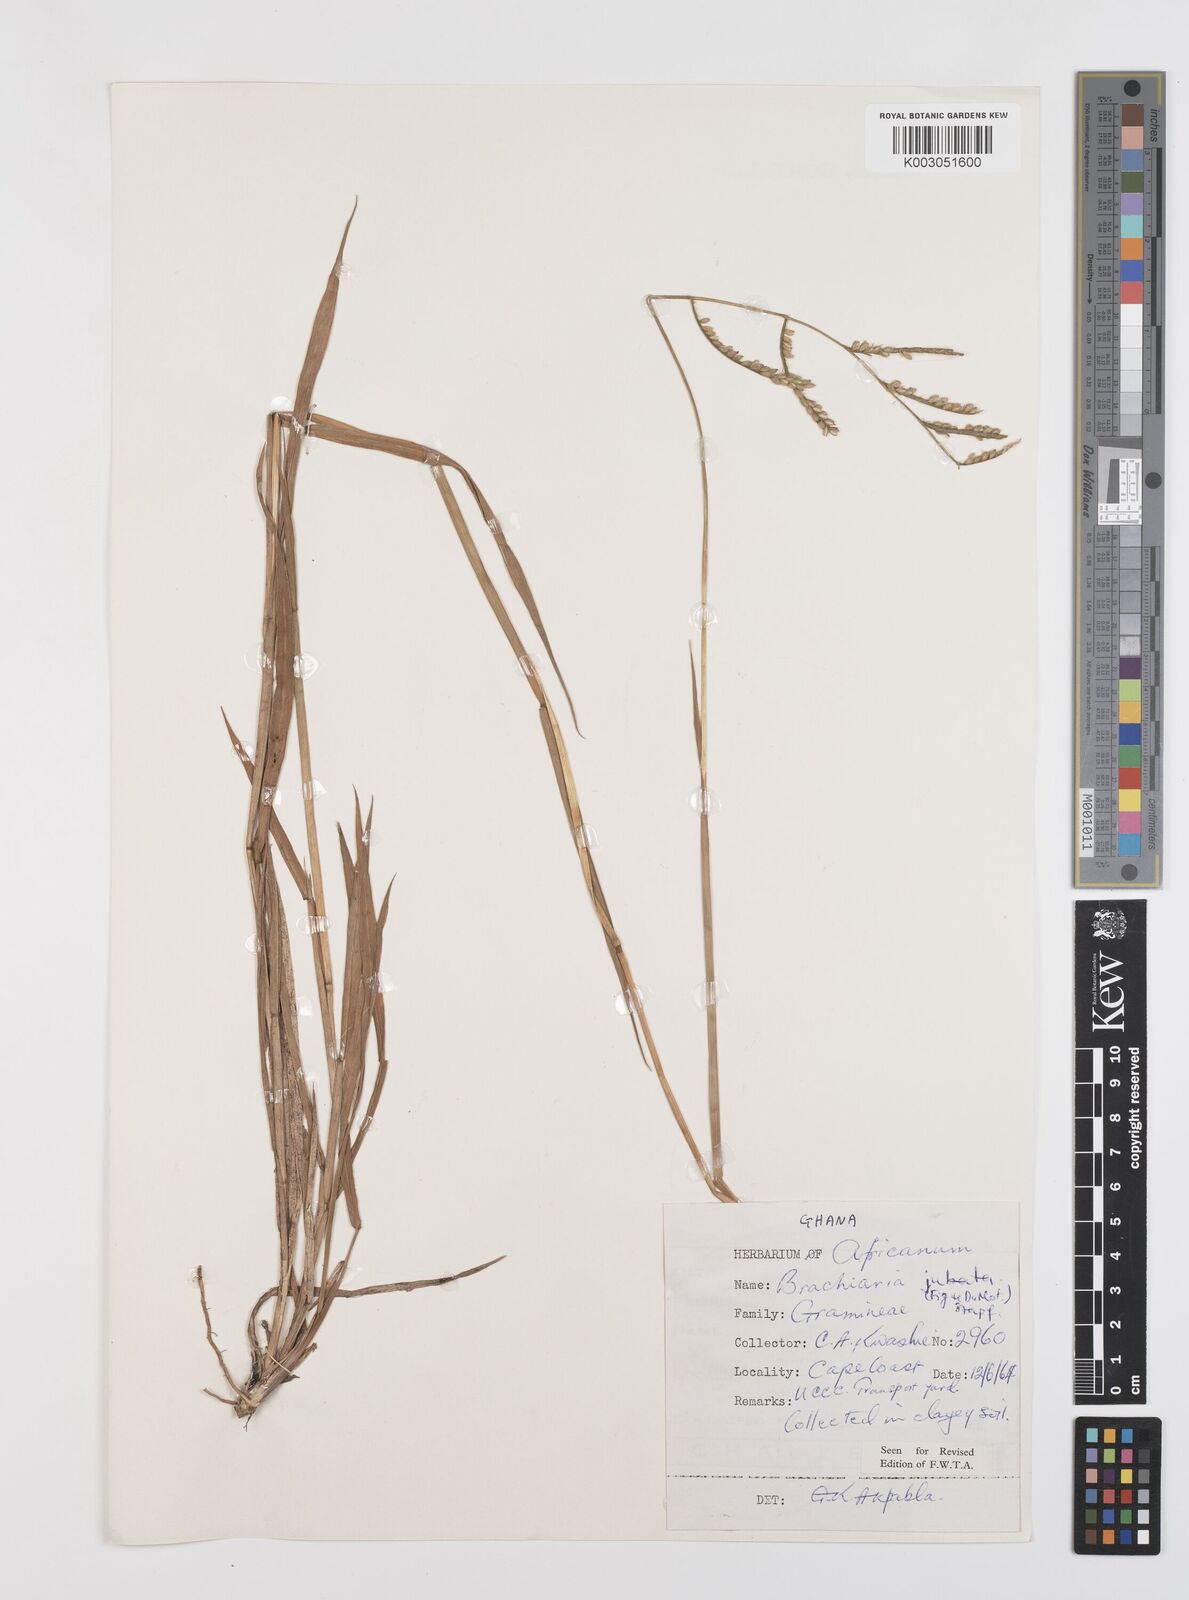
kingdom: Plantae
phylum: Tracheophyta
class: Liliopsida
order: Poales
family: Poaceae
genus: Urochloa
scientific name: Urochloa jubata
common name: Buffalograss
